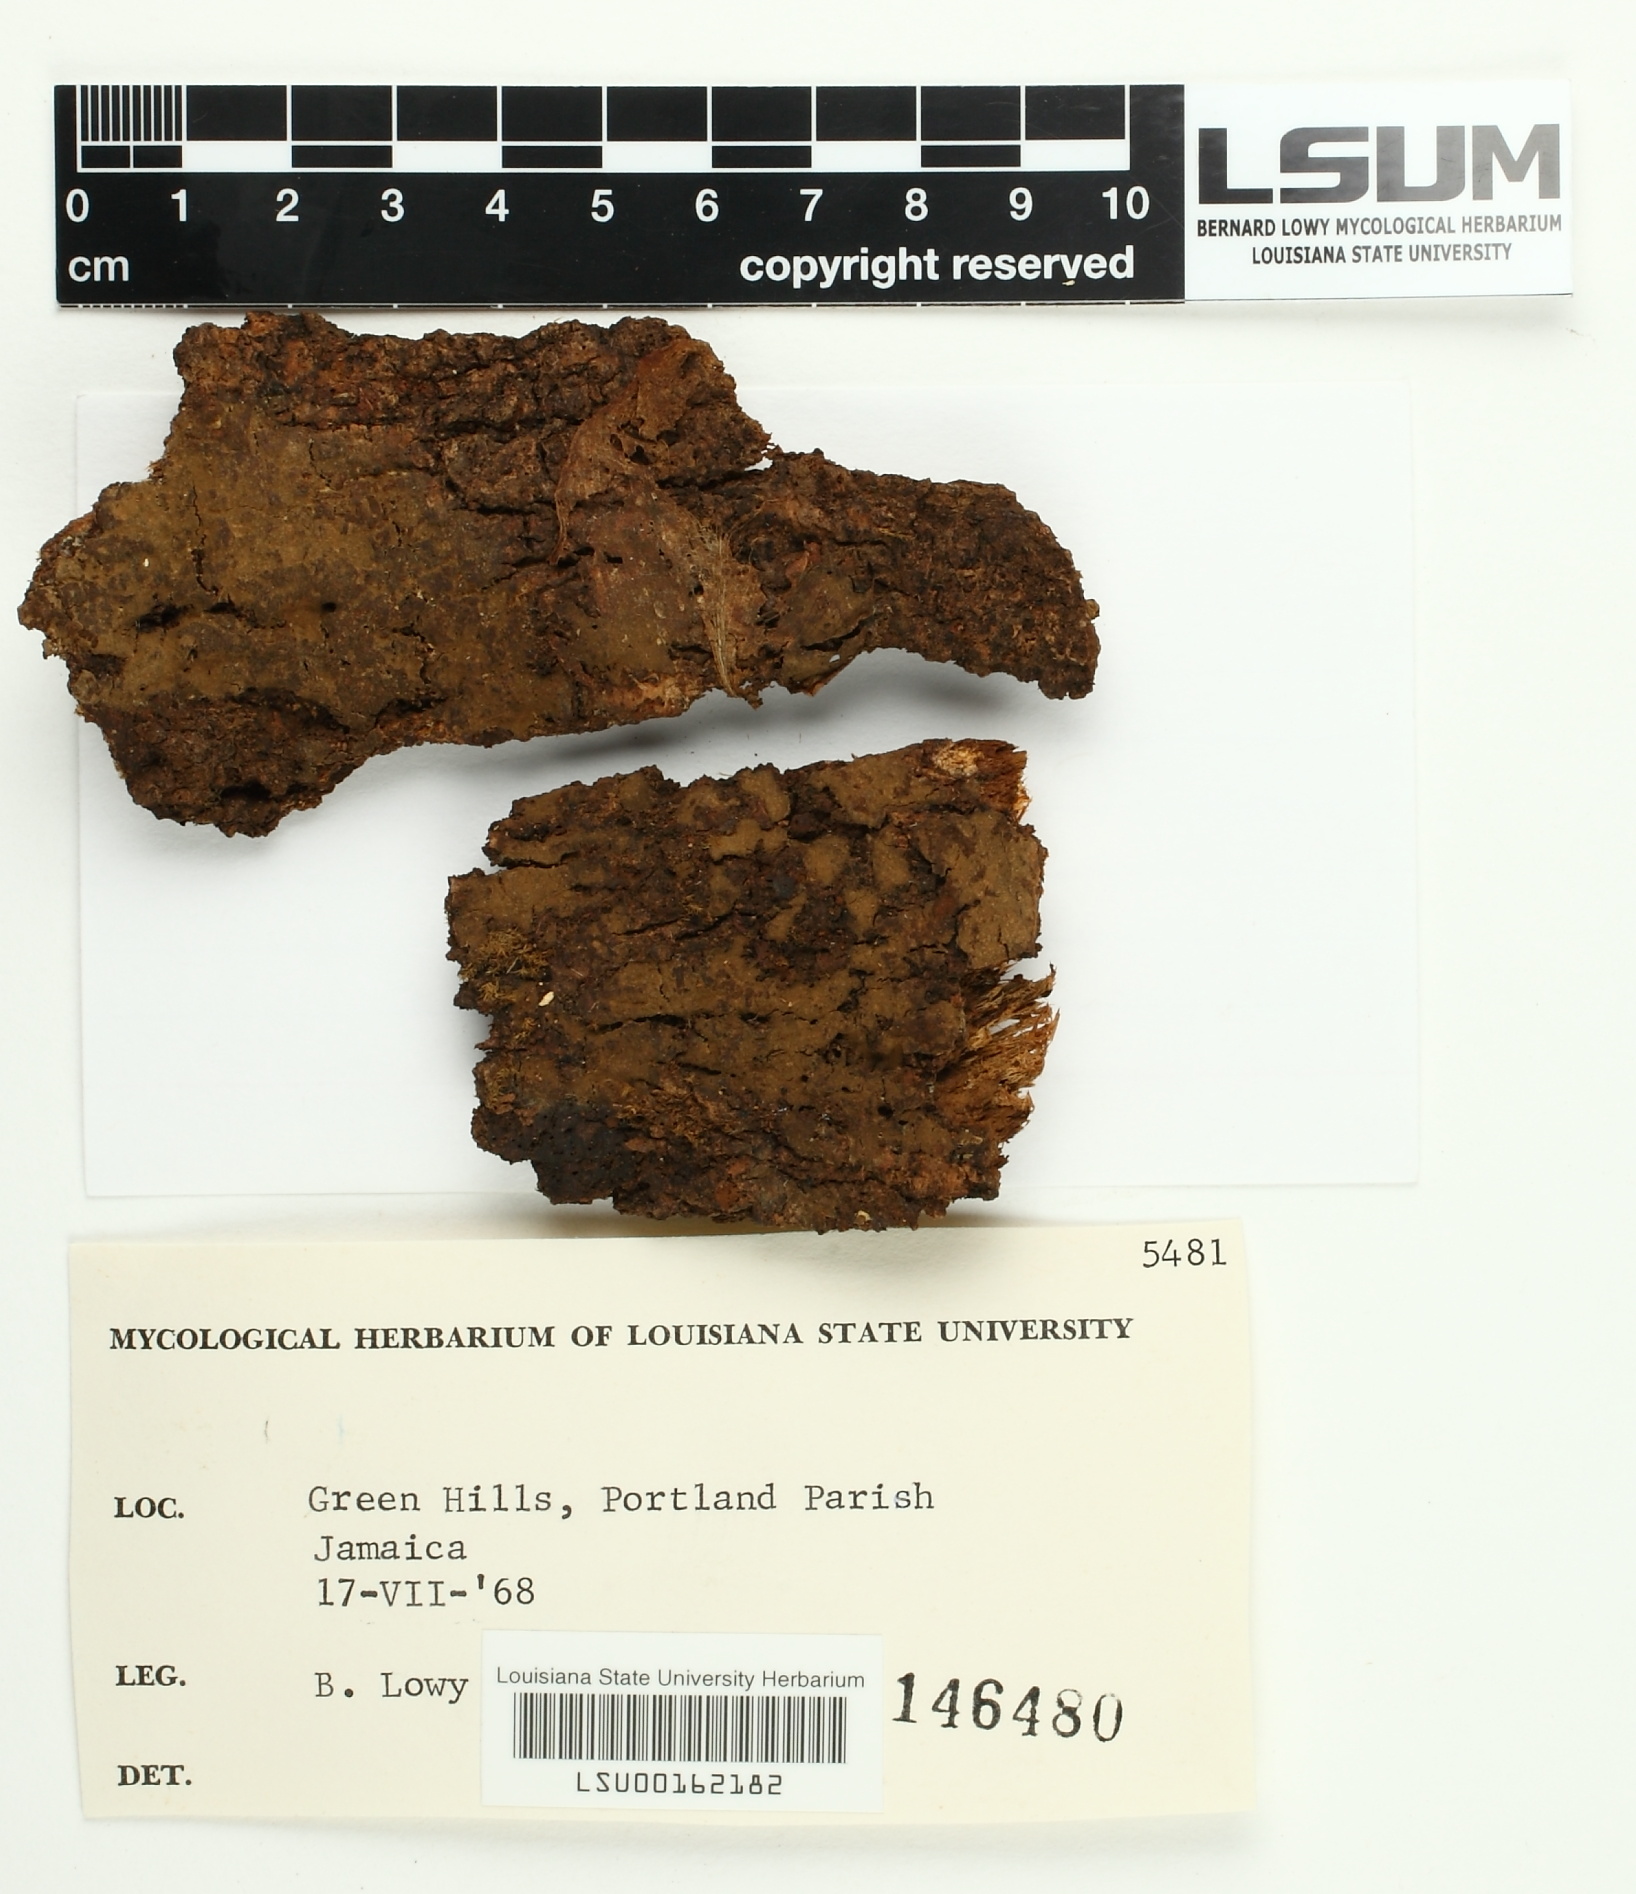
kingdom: Fungi
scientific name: Fungi
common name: Fungi
